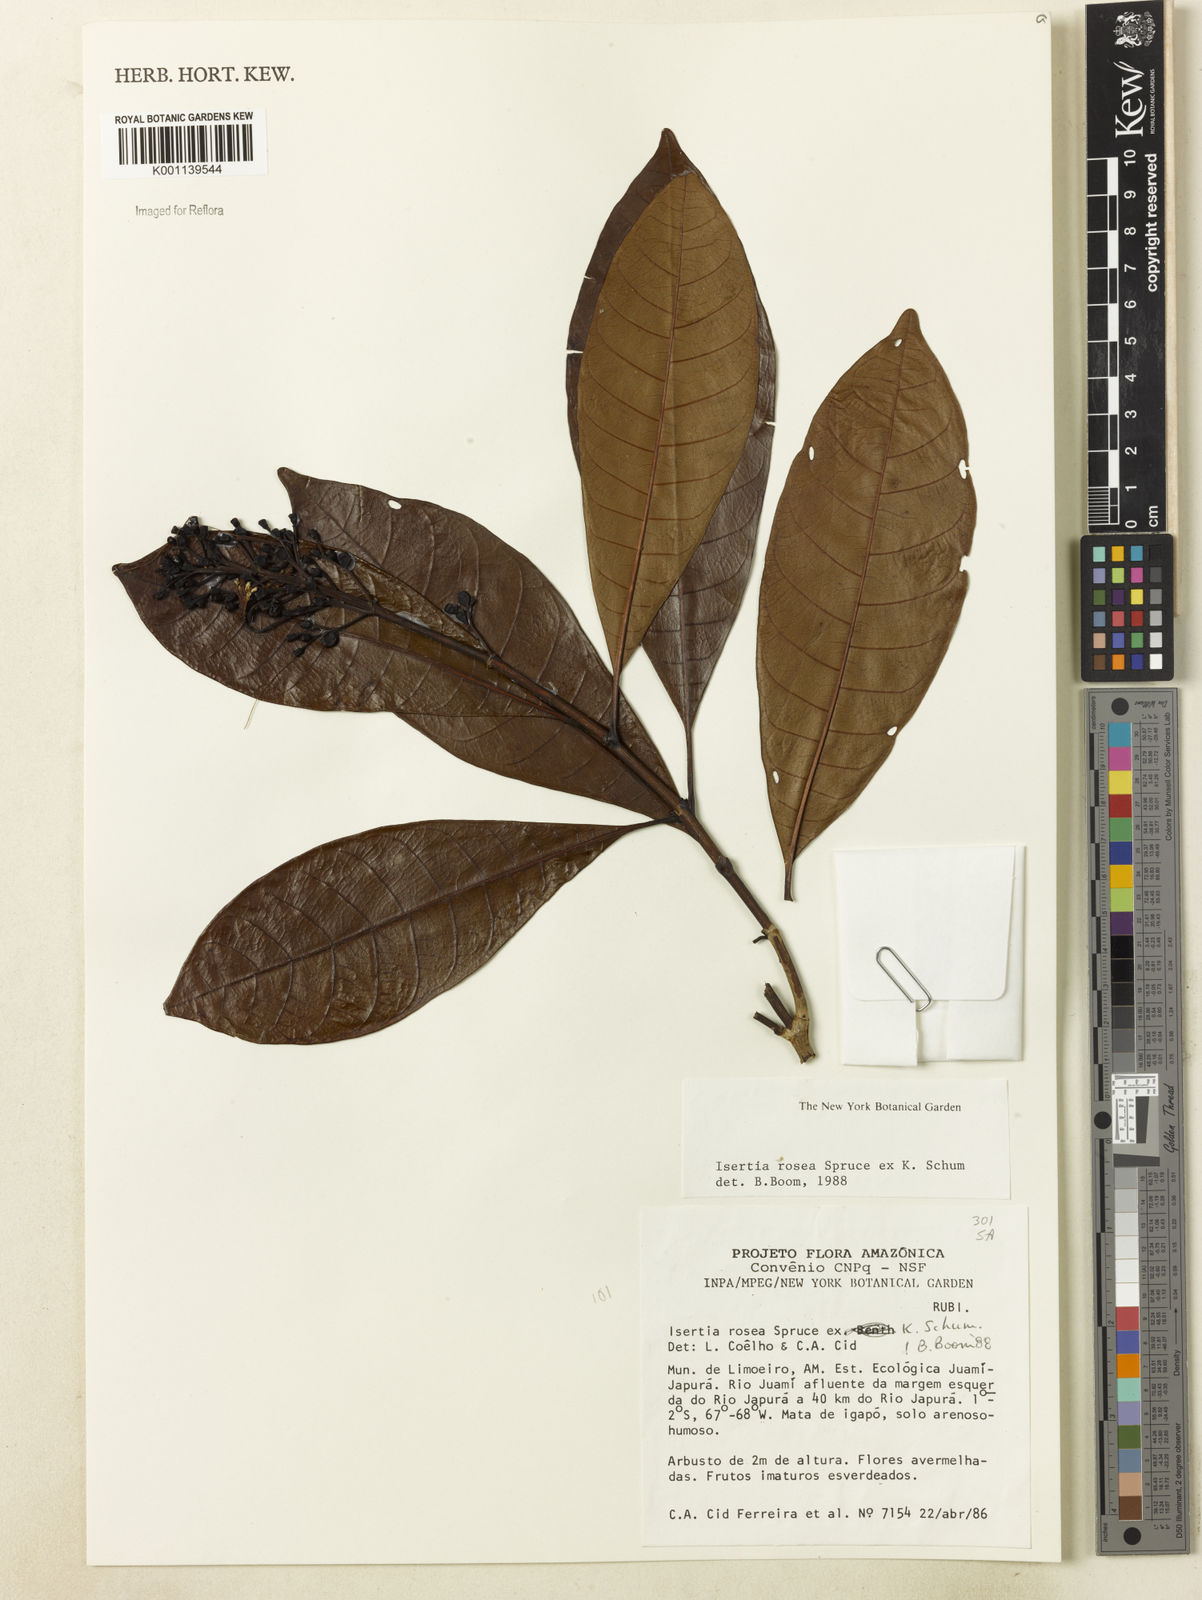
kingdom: Plantae
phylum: Tracheophyta
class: Magnoliopsida
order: Gentianales
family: Rubiaceae
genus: Isertia
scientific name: Isertia rosea
